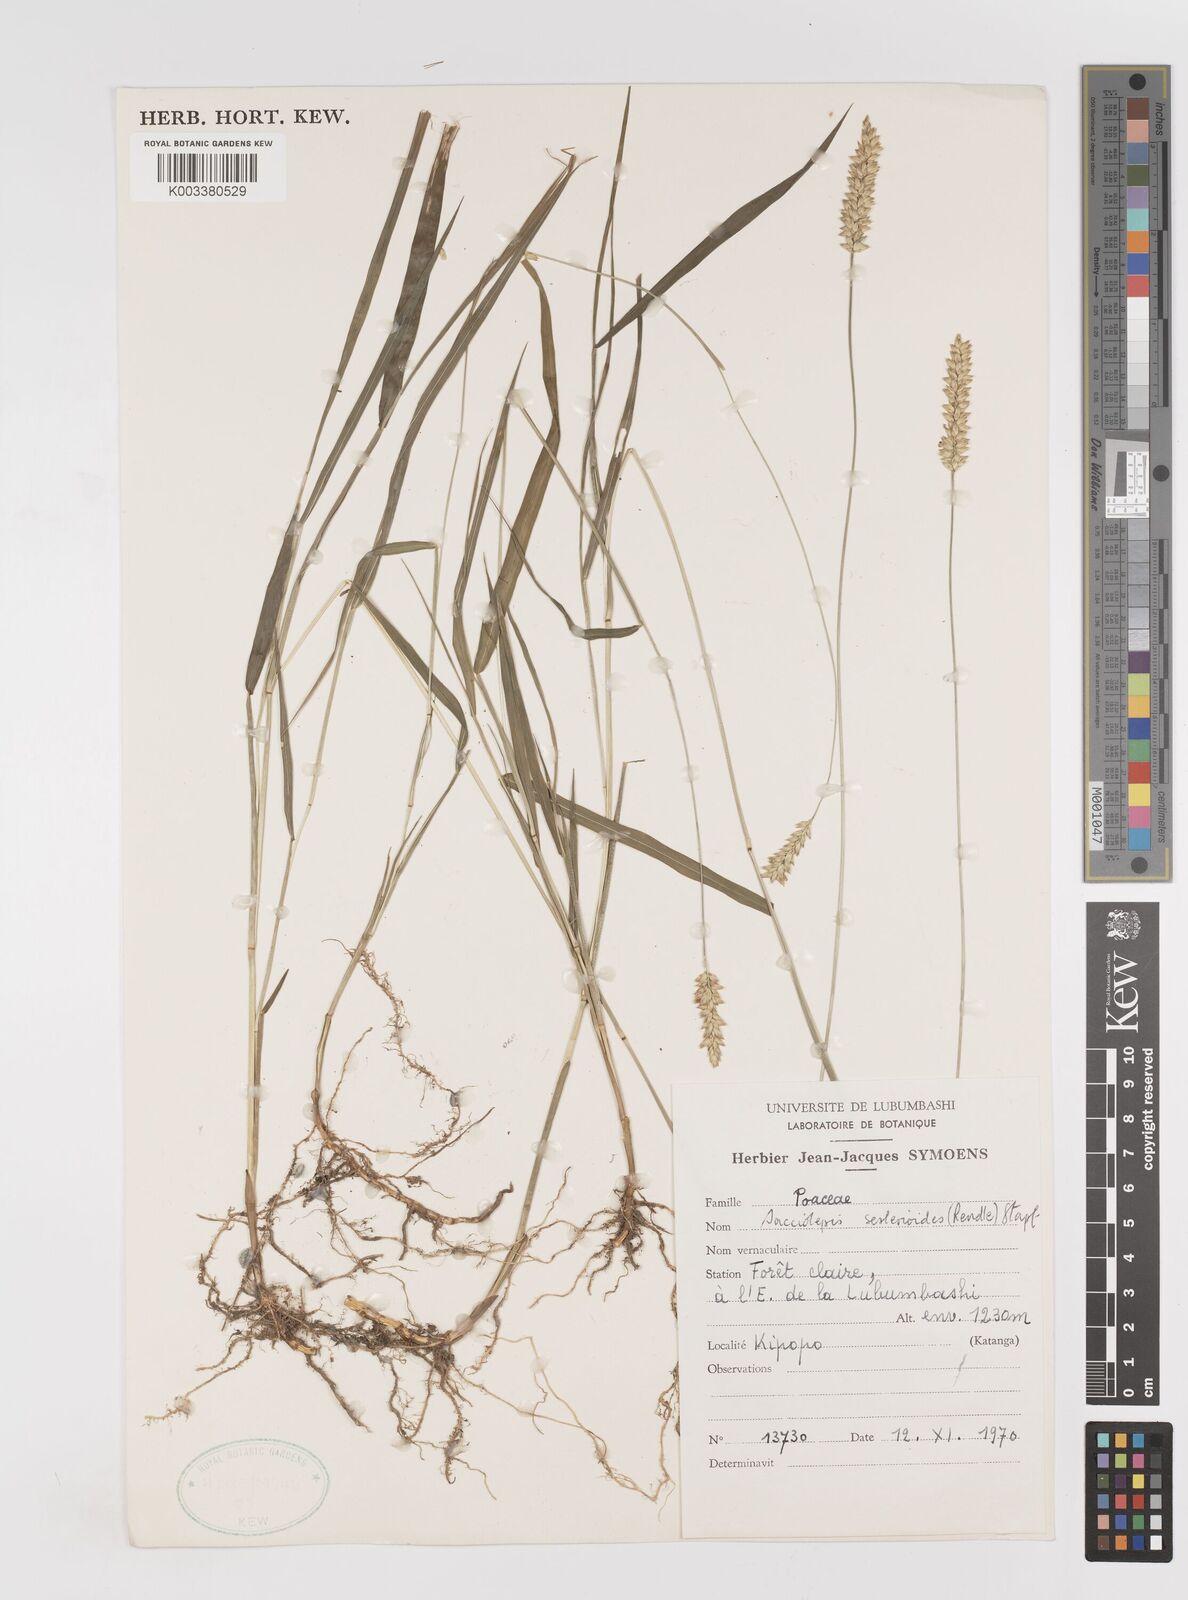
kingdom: Plantae
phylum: Tracheophyta
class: Liliopsida
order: Poales
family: Poaceae
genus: Sacciolepis
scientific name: Sacciolepis seslerioides
